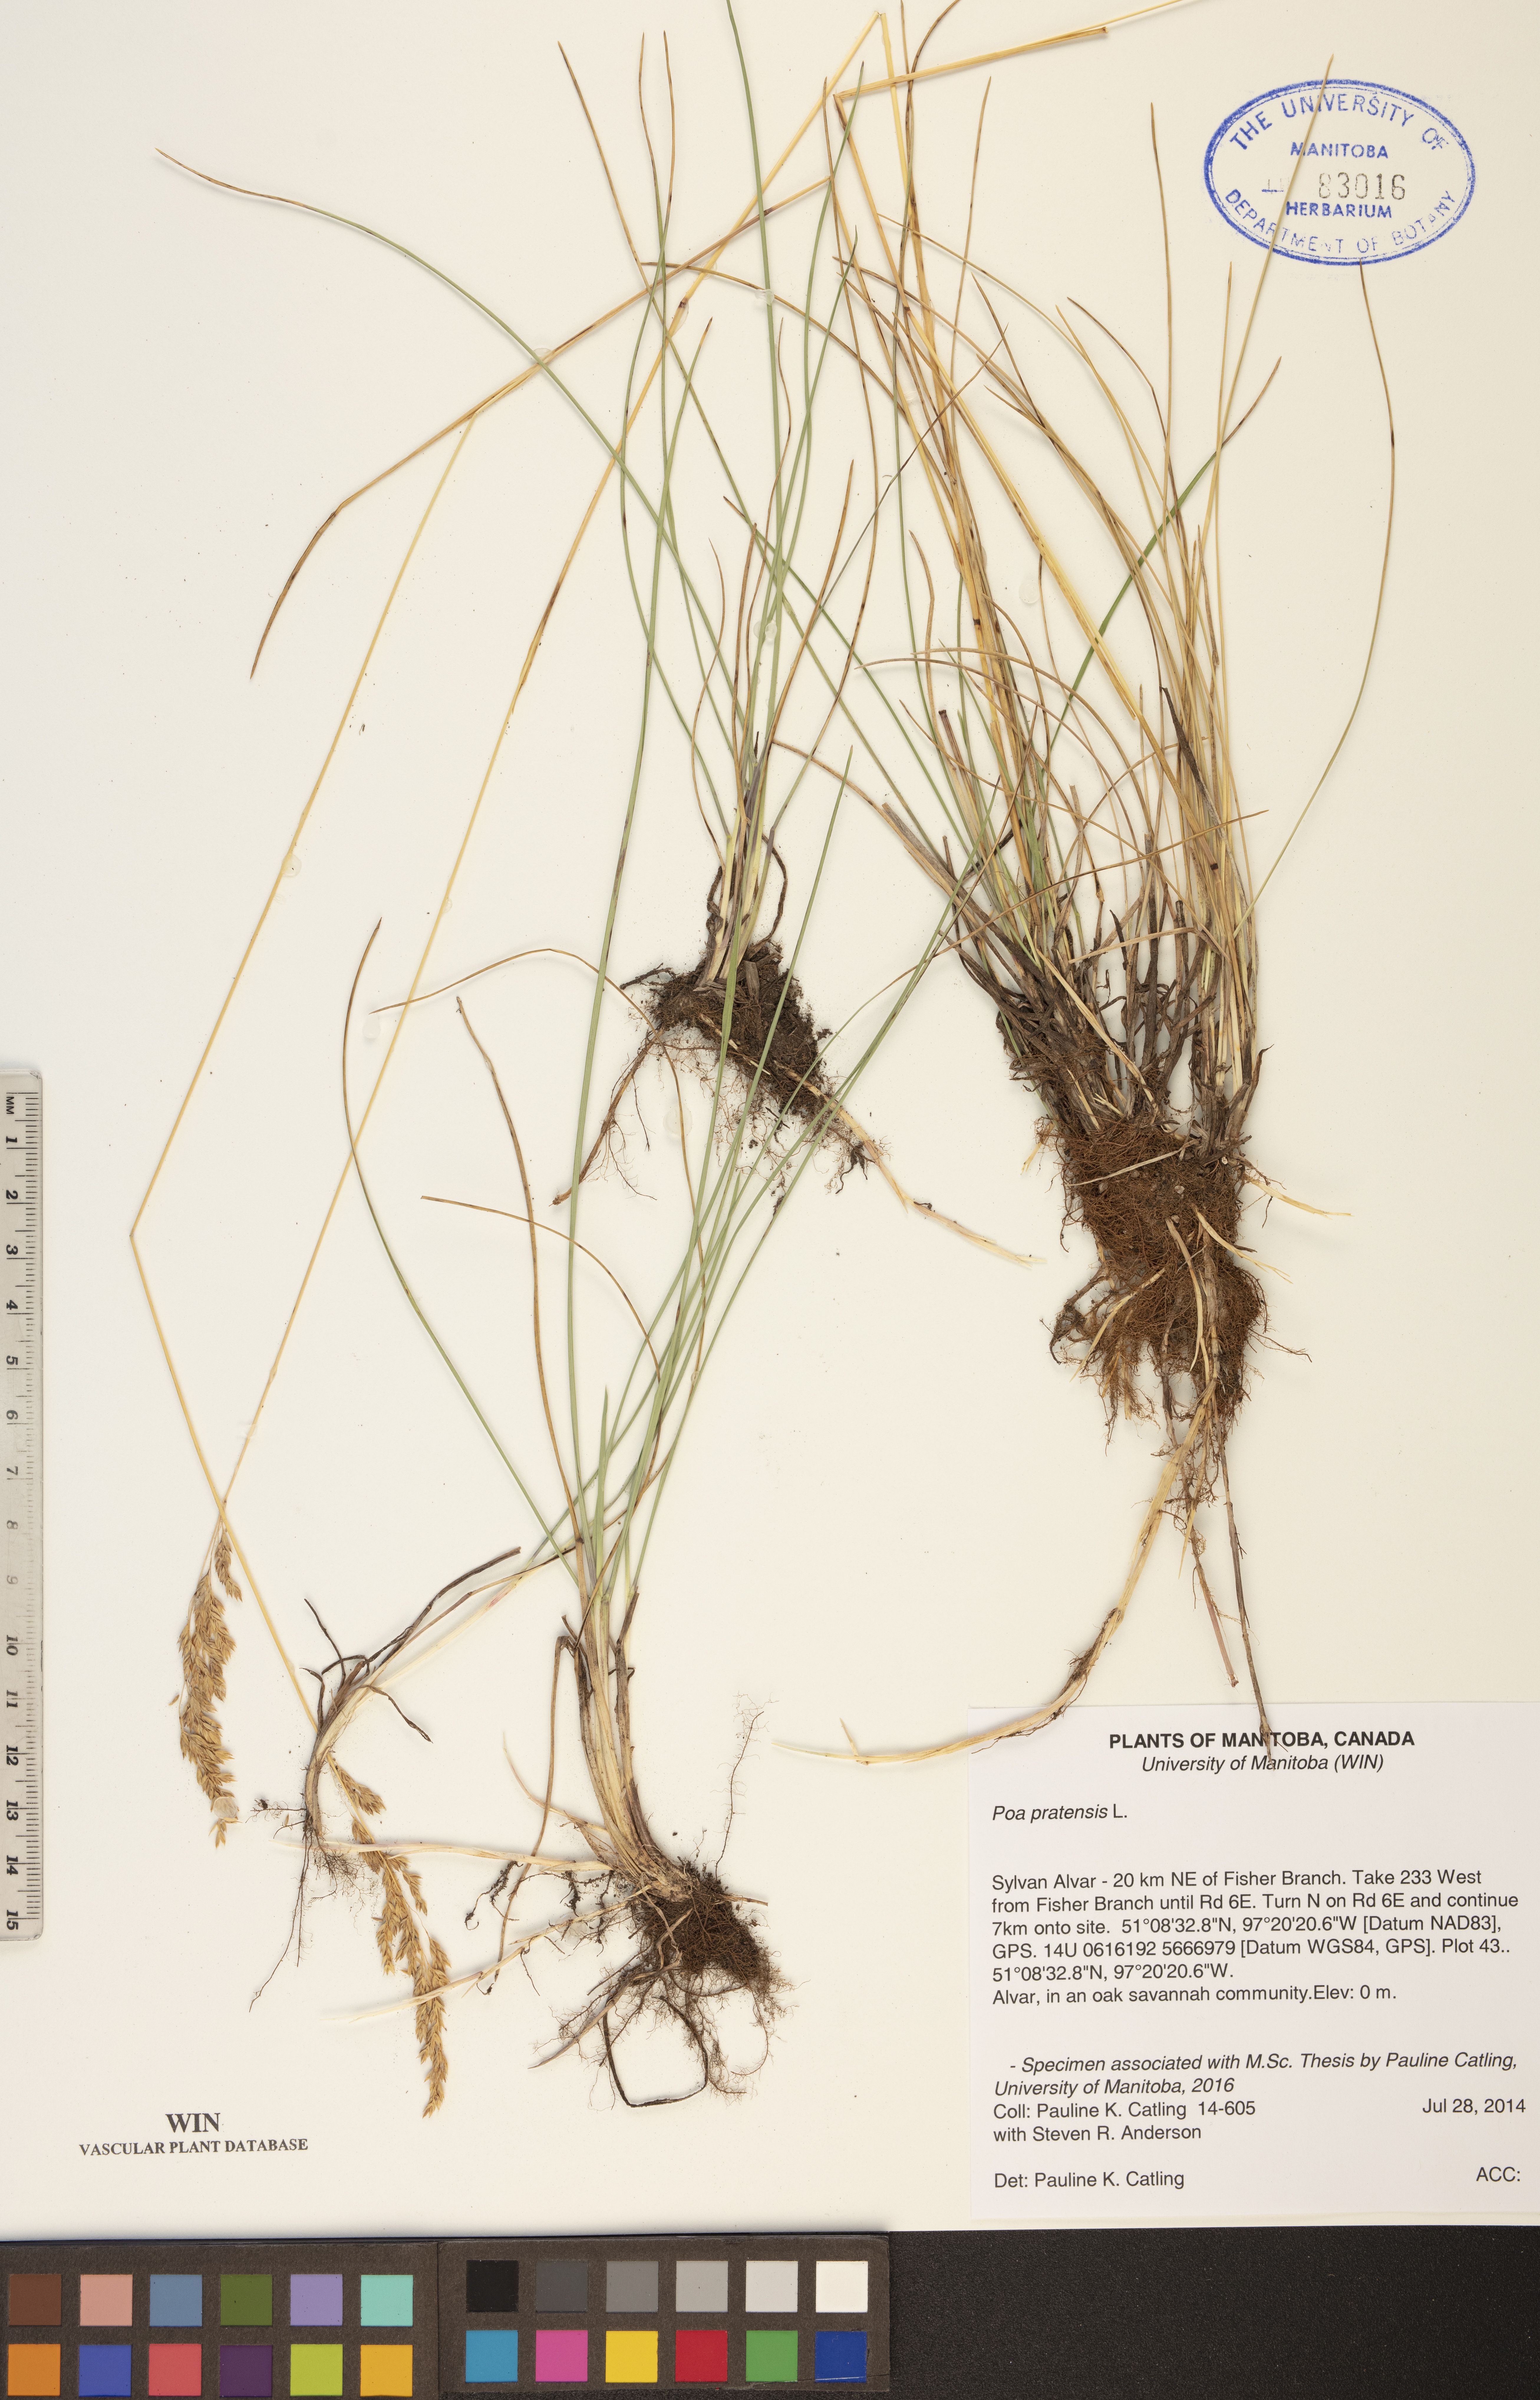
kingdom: Plantae
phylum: Tracheophyta
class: Liliopsida
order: Poales
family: Poaceae
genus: Poa
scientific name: Poa pratensis
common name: Kentucky bluegrass
